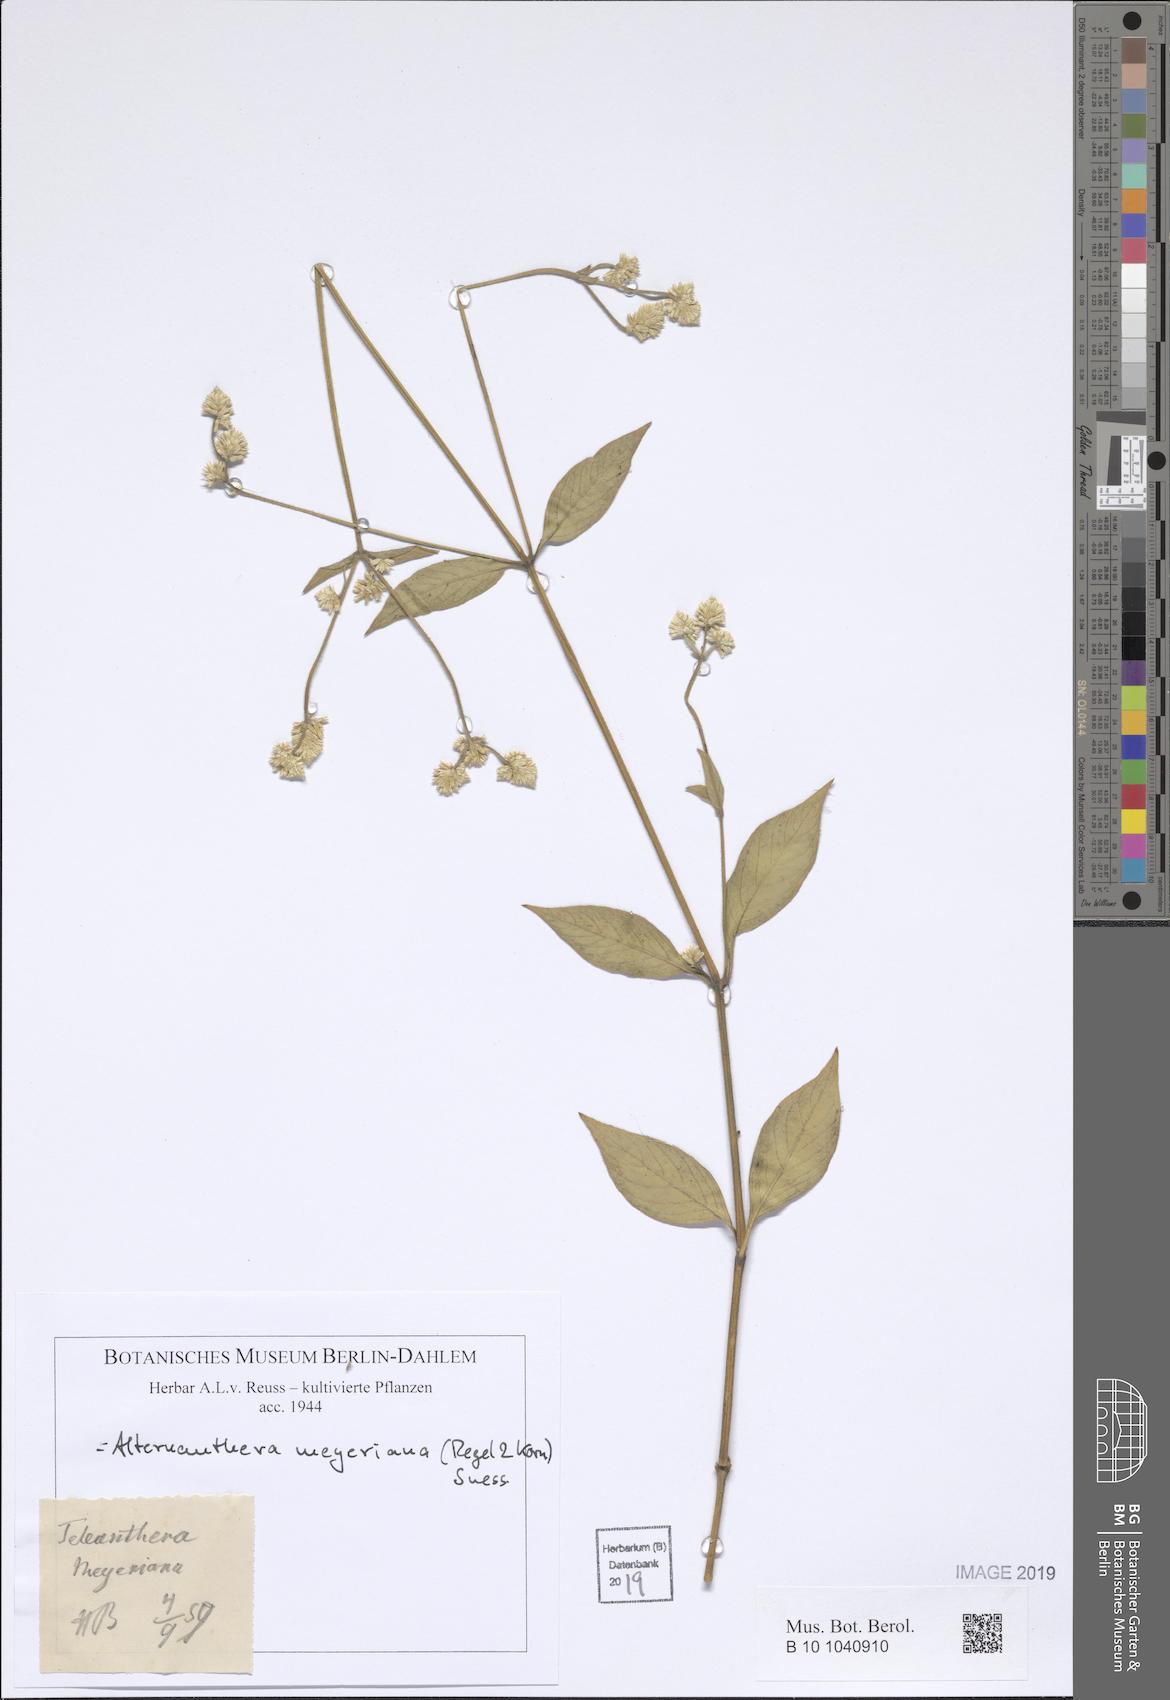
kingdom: Plantae
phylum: Tracheophyta
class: Magnoliopsida
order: Caryophyllales
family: Amaranthaceae
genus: Alternanthera
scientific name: Alternanthera lanceolata
